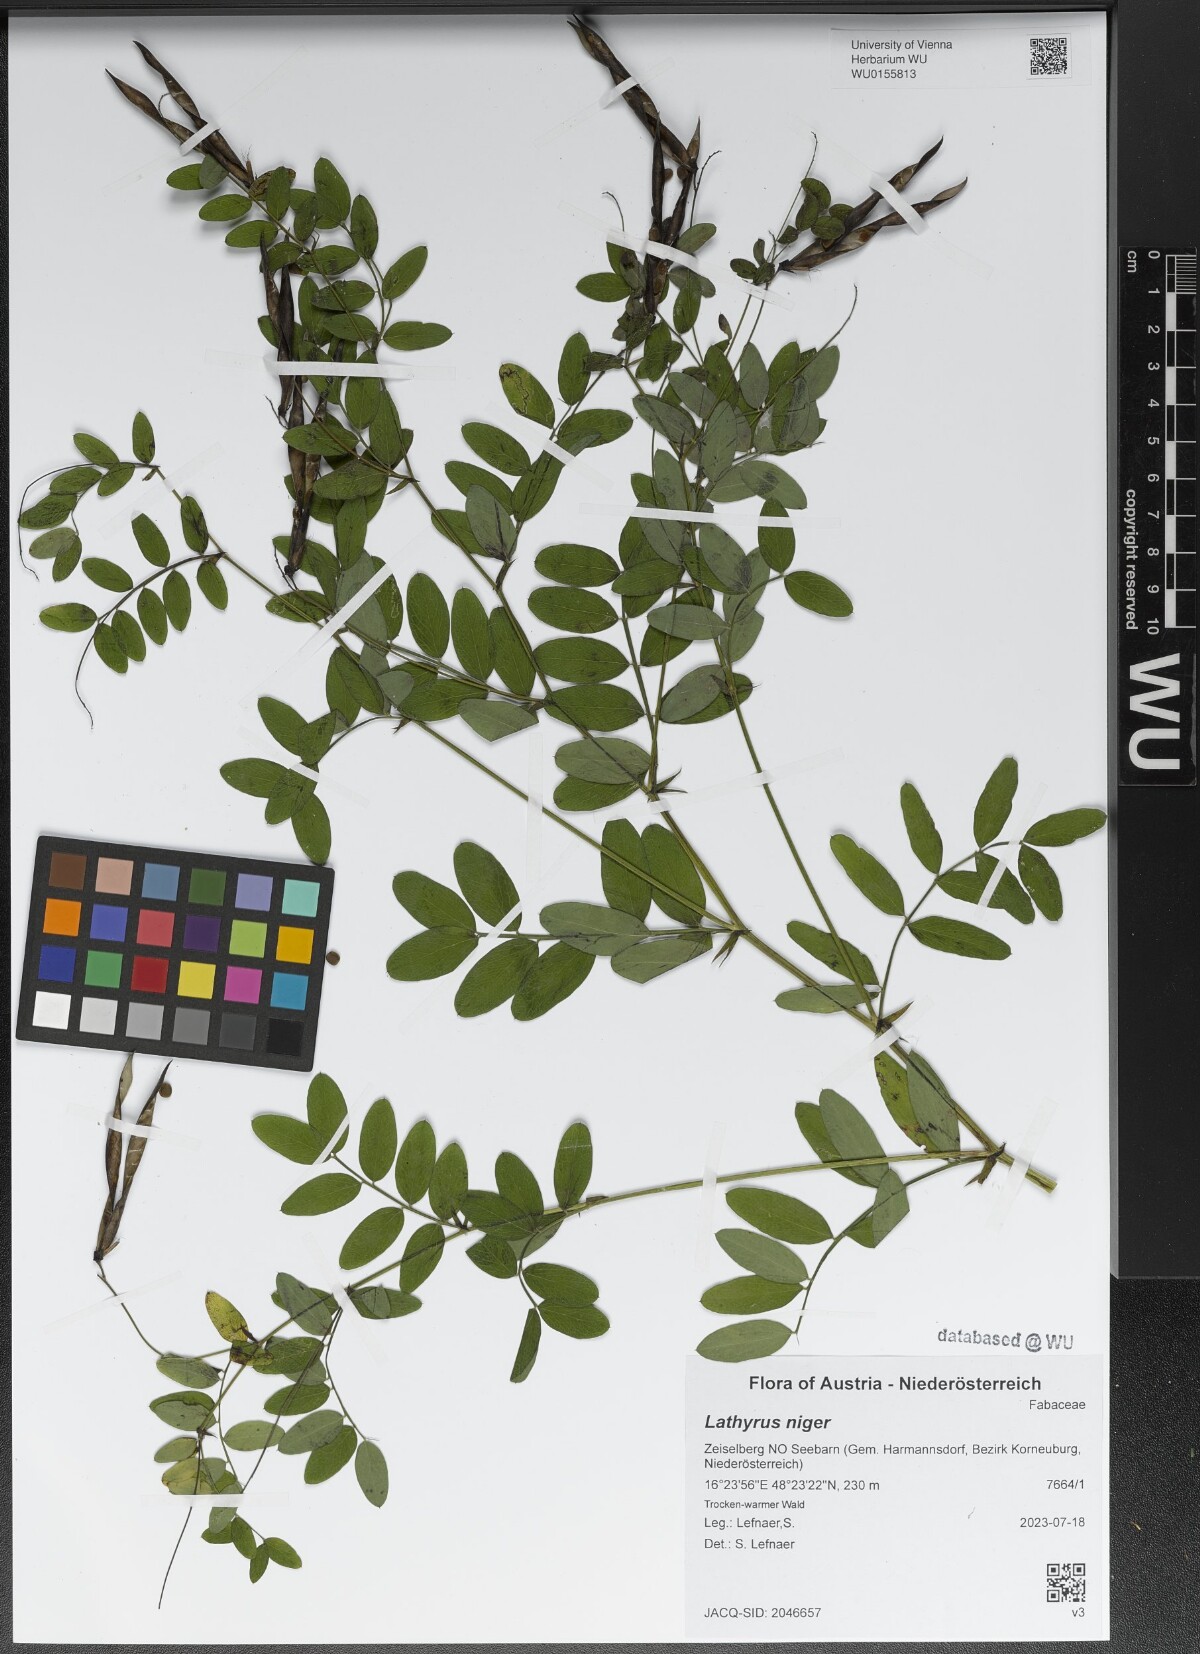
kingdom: Plantae
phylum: Tracheophyta
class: Magnoliopsida
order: Fabales
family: Fabaceae
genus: Lathyrus
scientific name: Lathyrus niger
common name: Black pea
